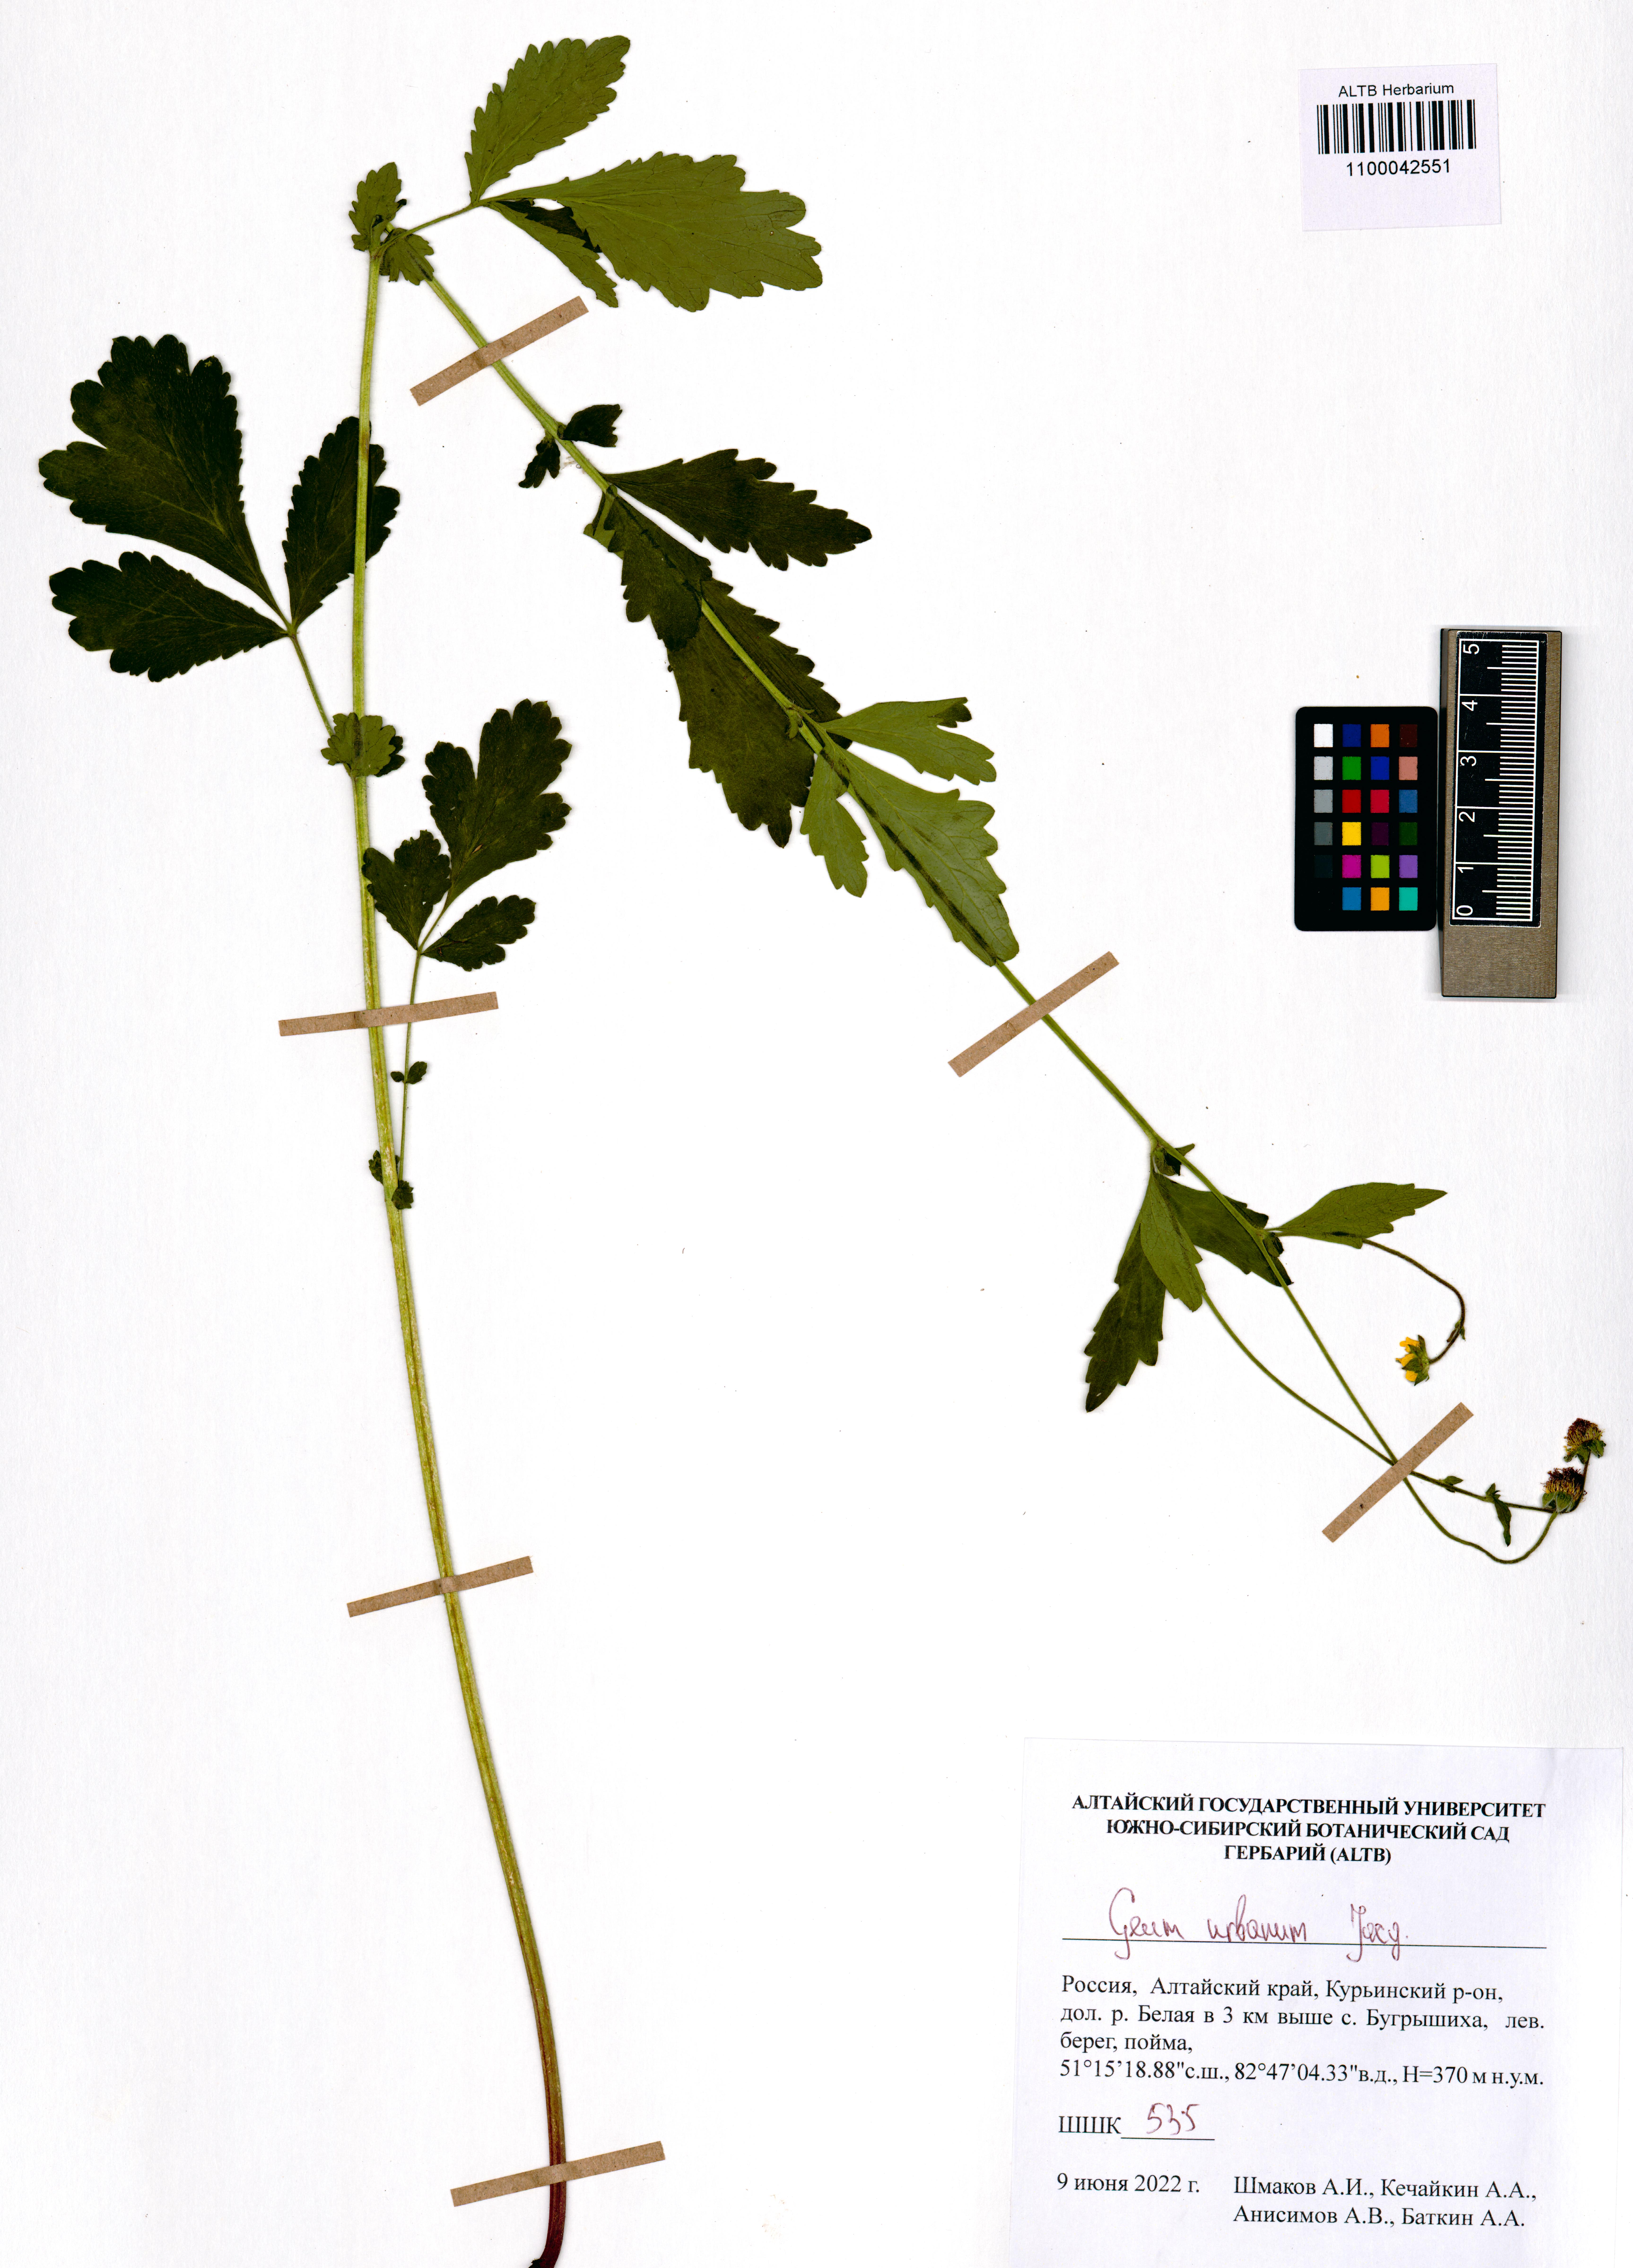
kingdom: Plantae
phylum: Tracheophyta
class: Magnoliopsida
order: Rosales
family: Rosaceae
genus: Geum
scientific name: Geum urbanum
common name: Wood avens
